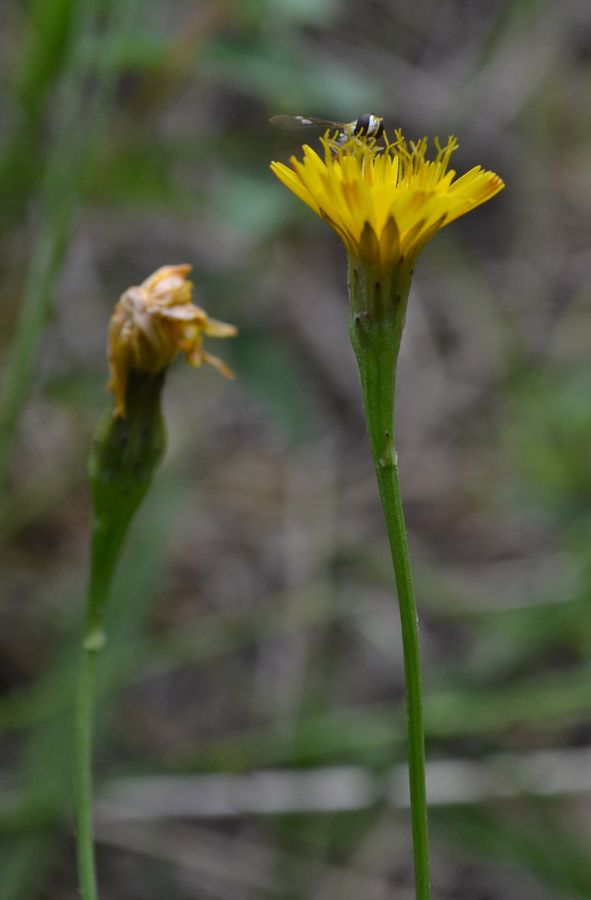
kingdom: Plantae
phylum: Tracheophyta
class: Magnoliopsida
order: Asterales
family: Asteraceae
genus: Scorzoneroides
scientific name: Scorzoneroides autumnalis
